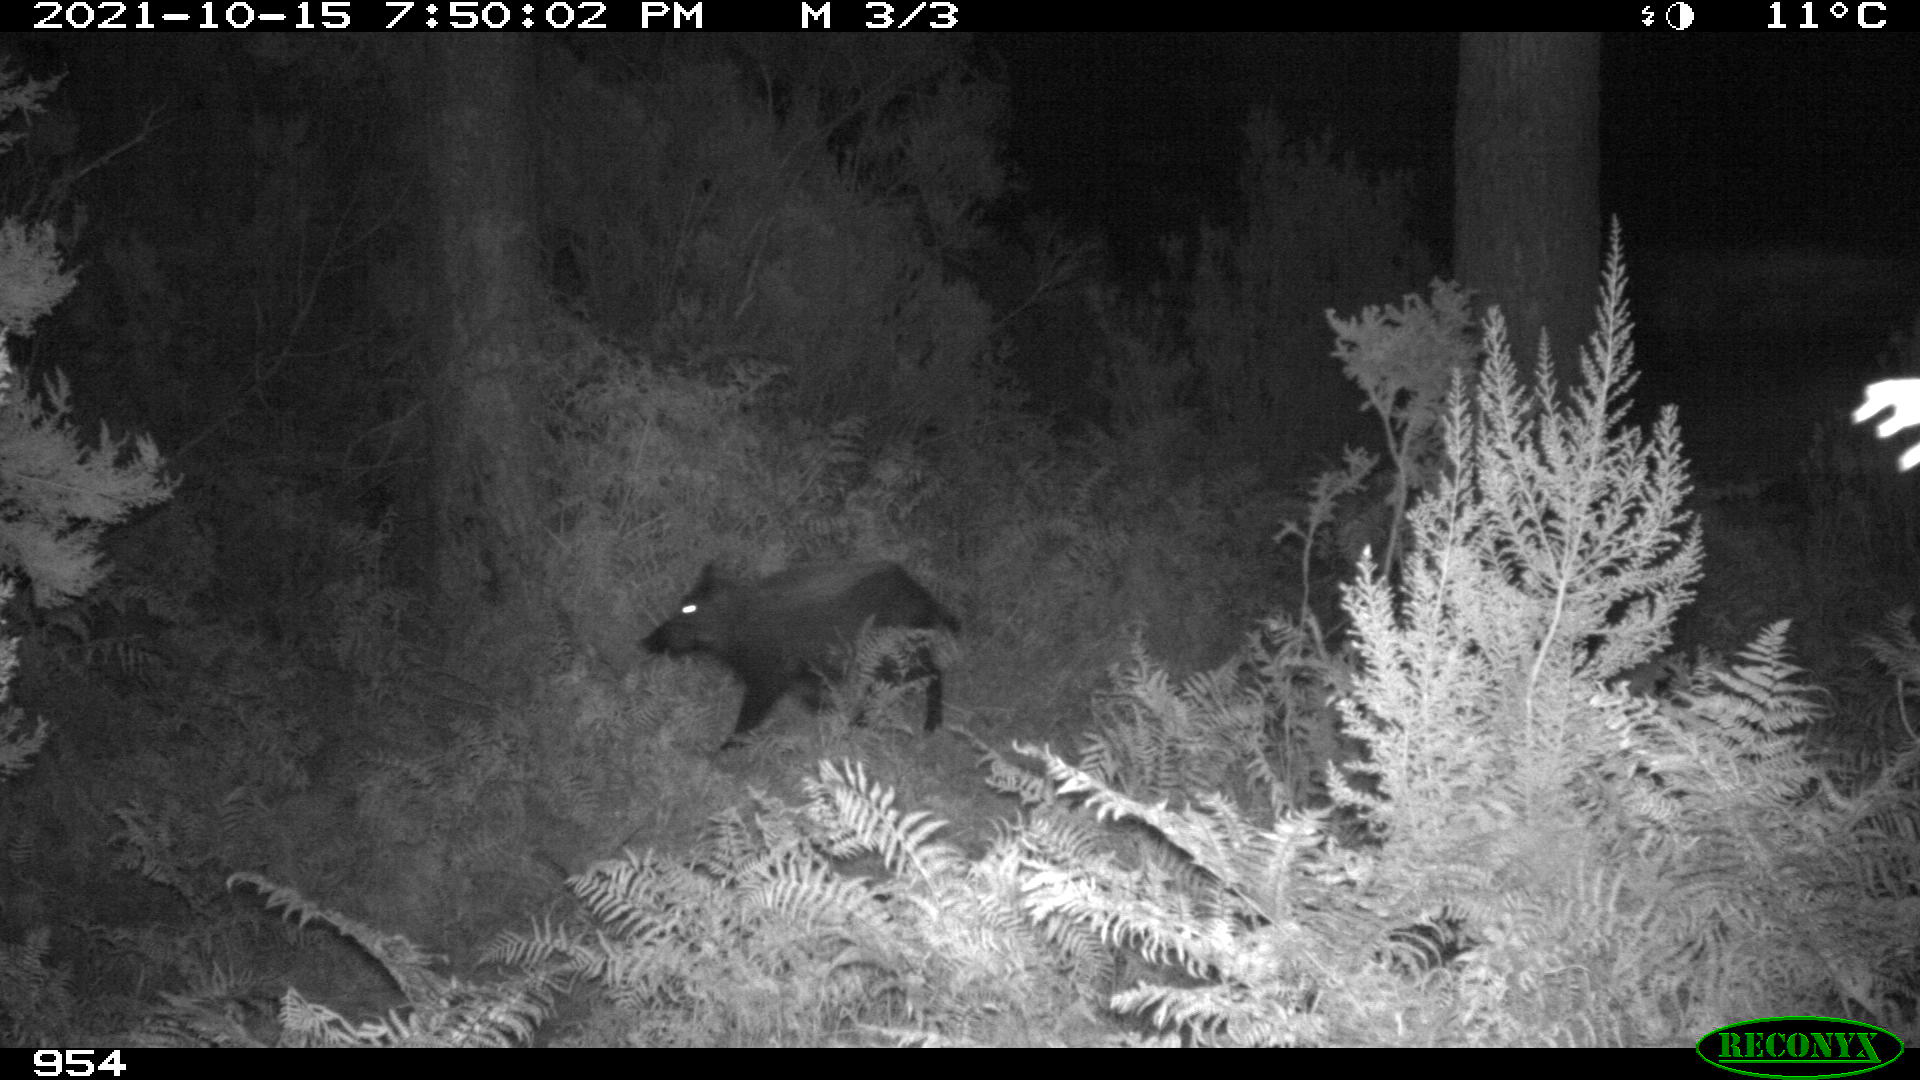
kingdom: Animalia
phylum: Chordata
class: Mammalia
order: Artiodactyla
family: Suidae
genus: Sus
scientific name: Sus scrofa
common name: Wild boar
